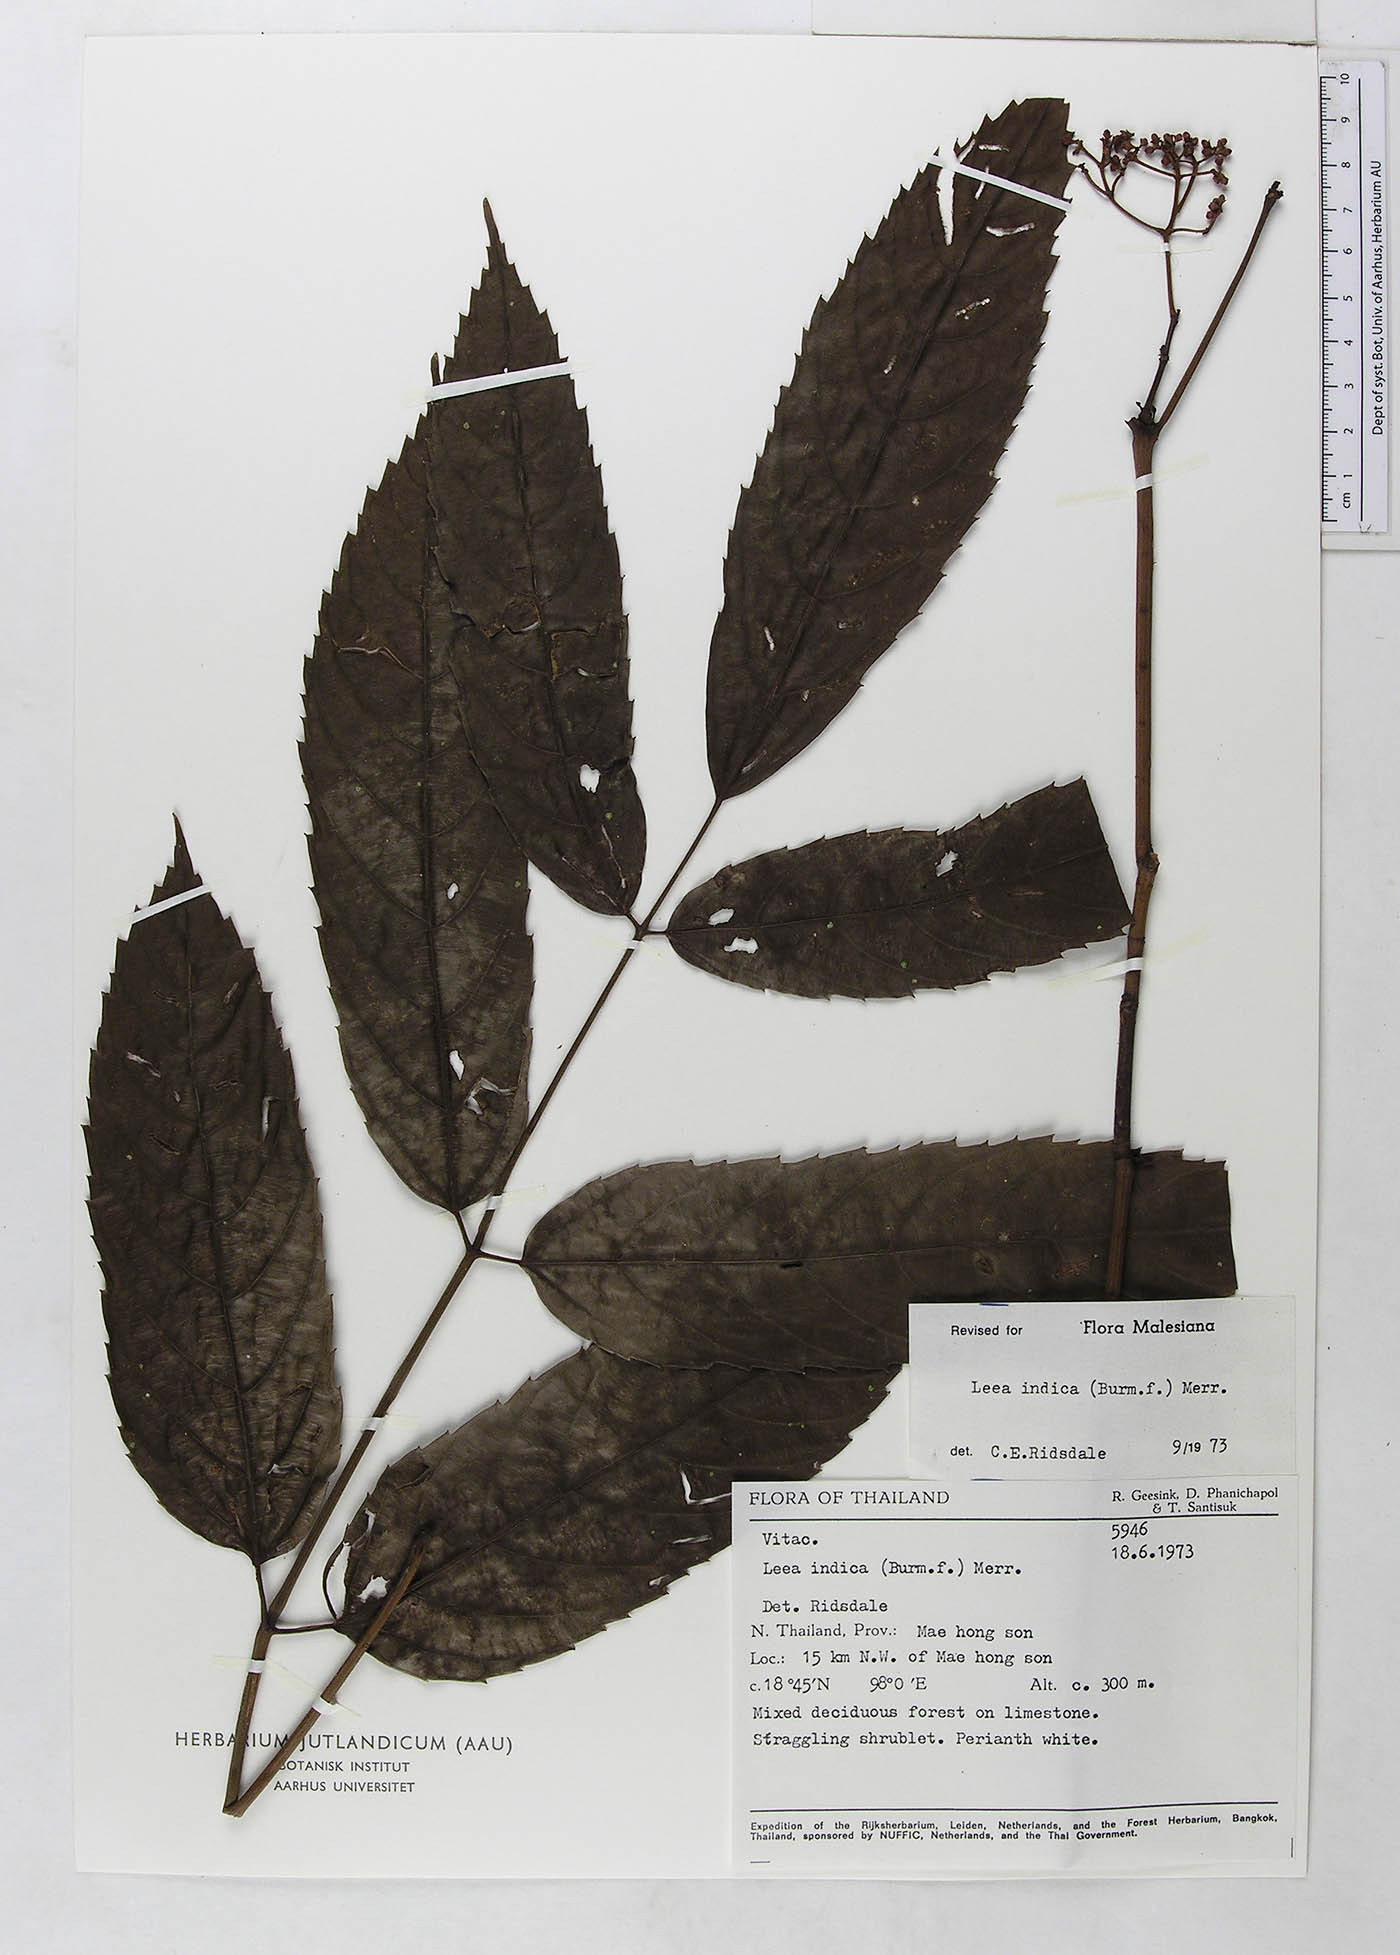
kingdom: Plantae
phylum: Tracheophyta
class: Magnoliopsida
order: Vitales
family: Vitaceae
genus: Leea
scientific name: Leea indica
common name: Bandicoot-berry
